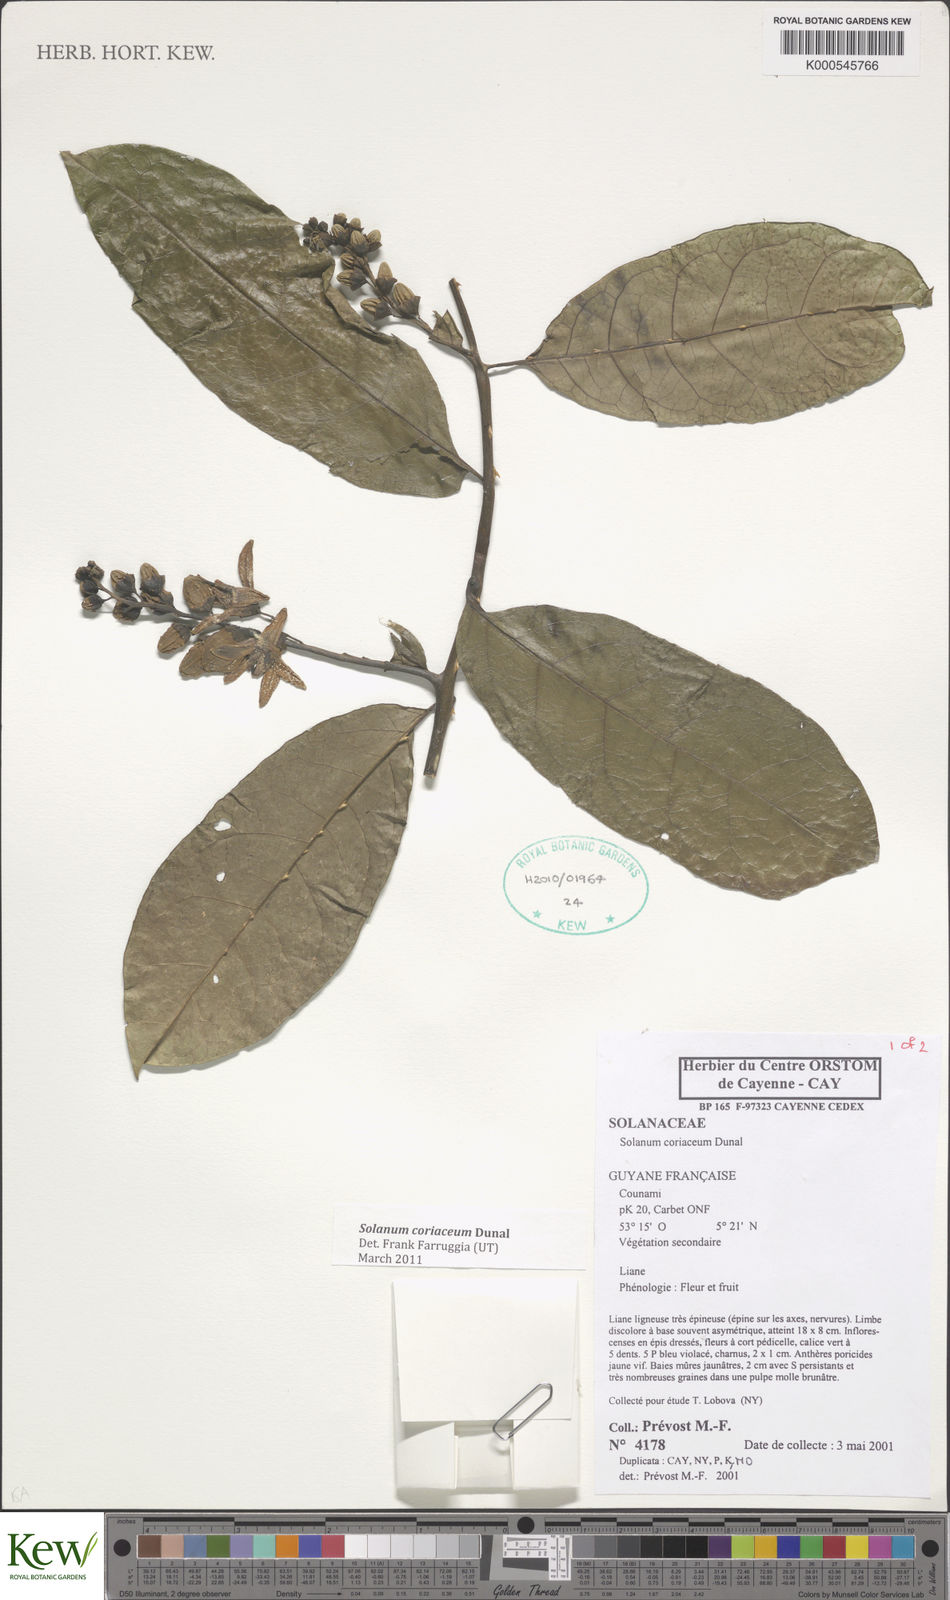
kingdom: Plantae
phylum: Tracheophyta
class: Magnoliopsida
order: Solanales
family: Solanaceae
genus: Solanum
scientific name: Solanum coriaceum
